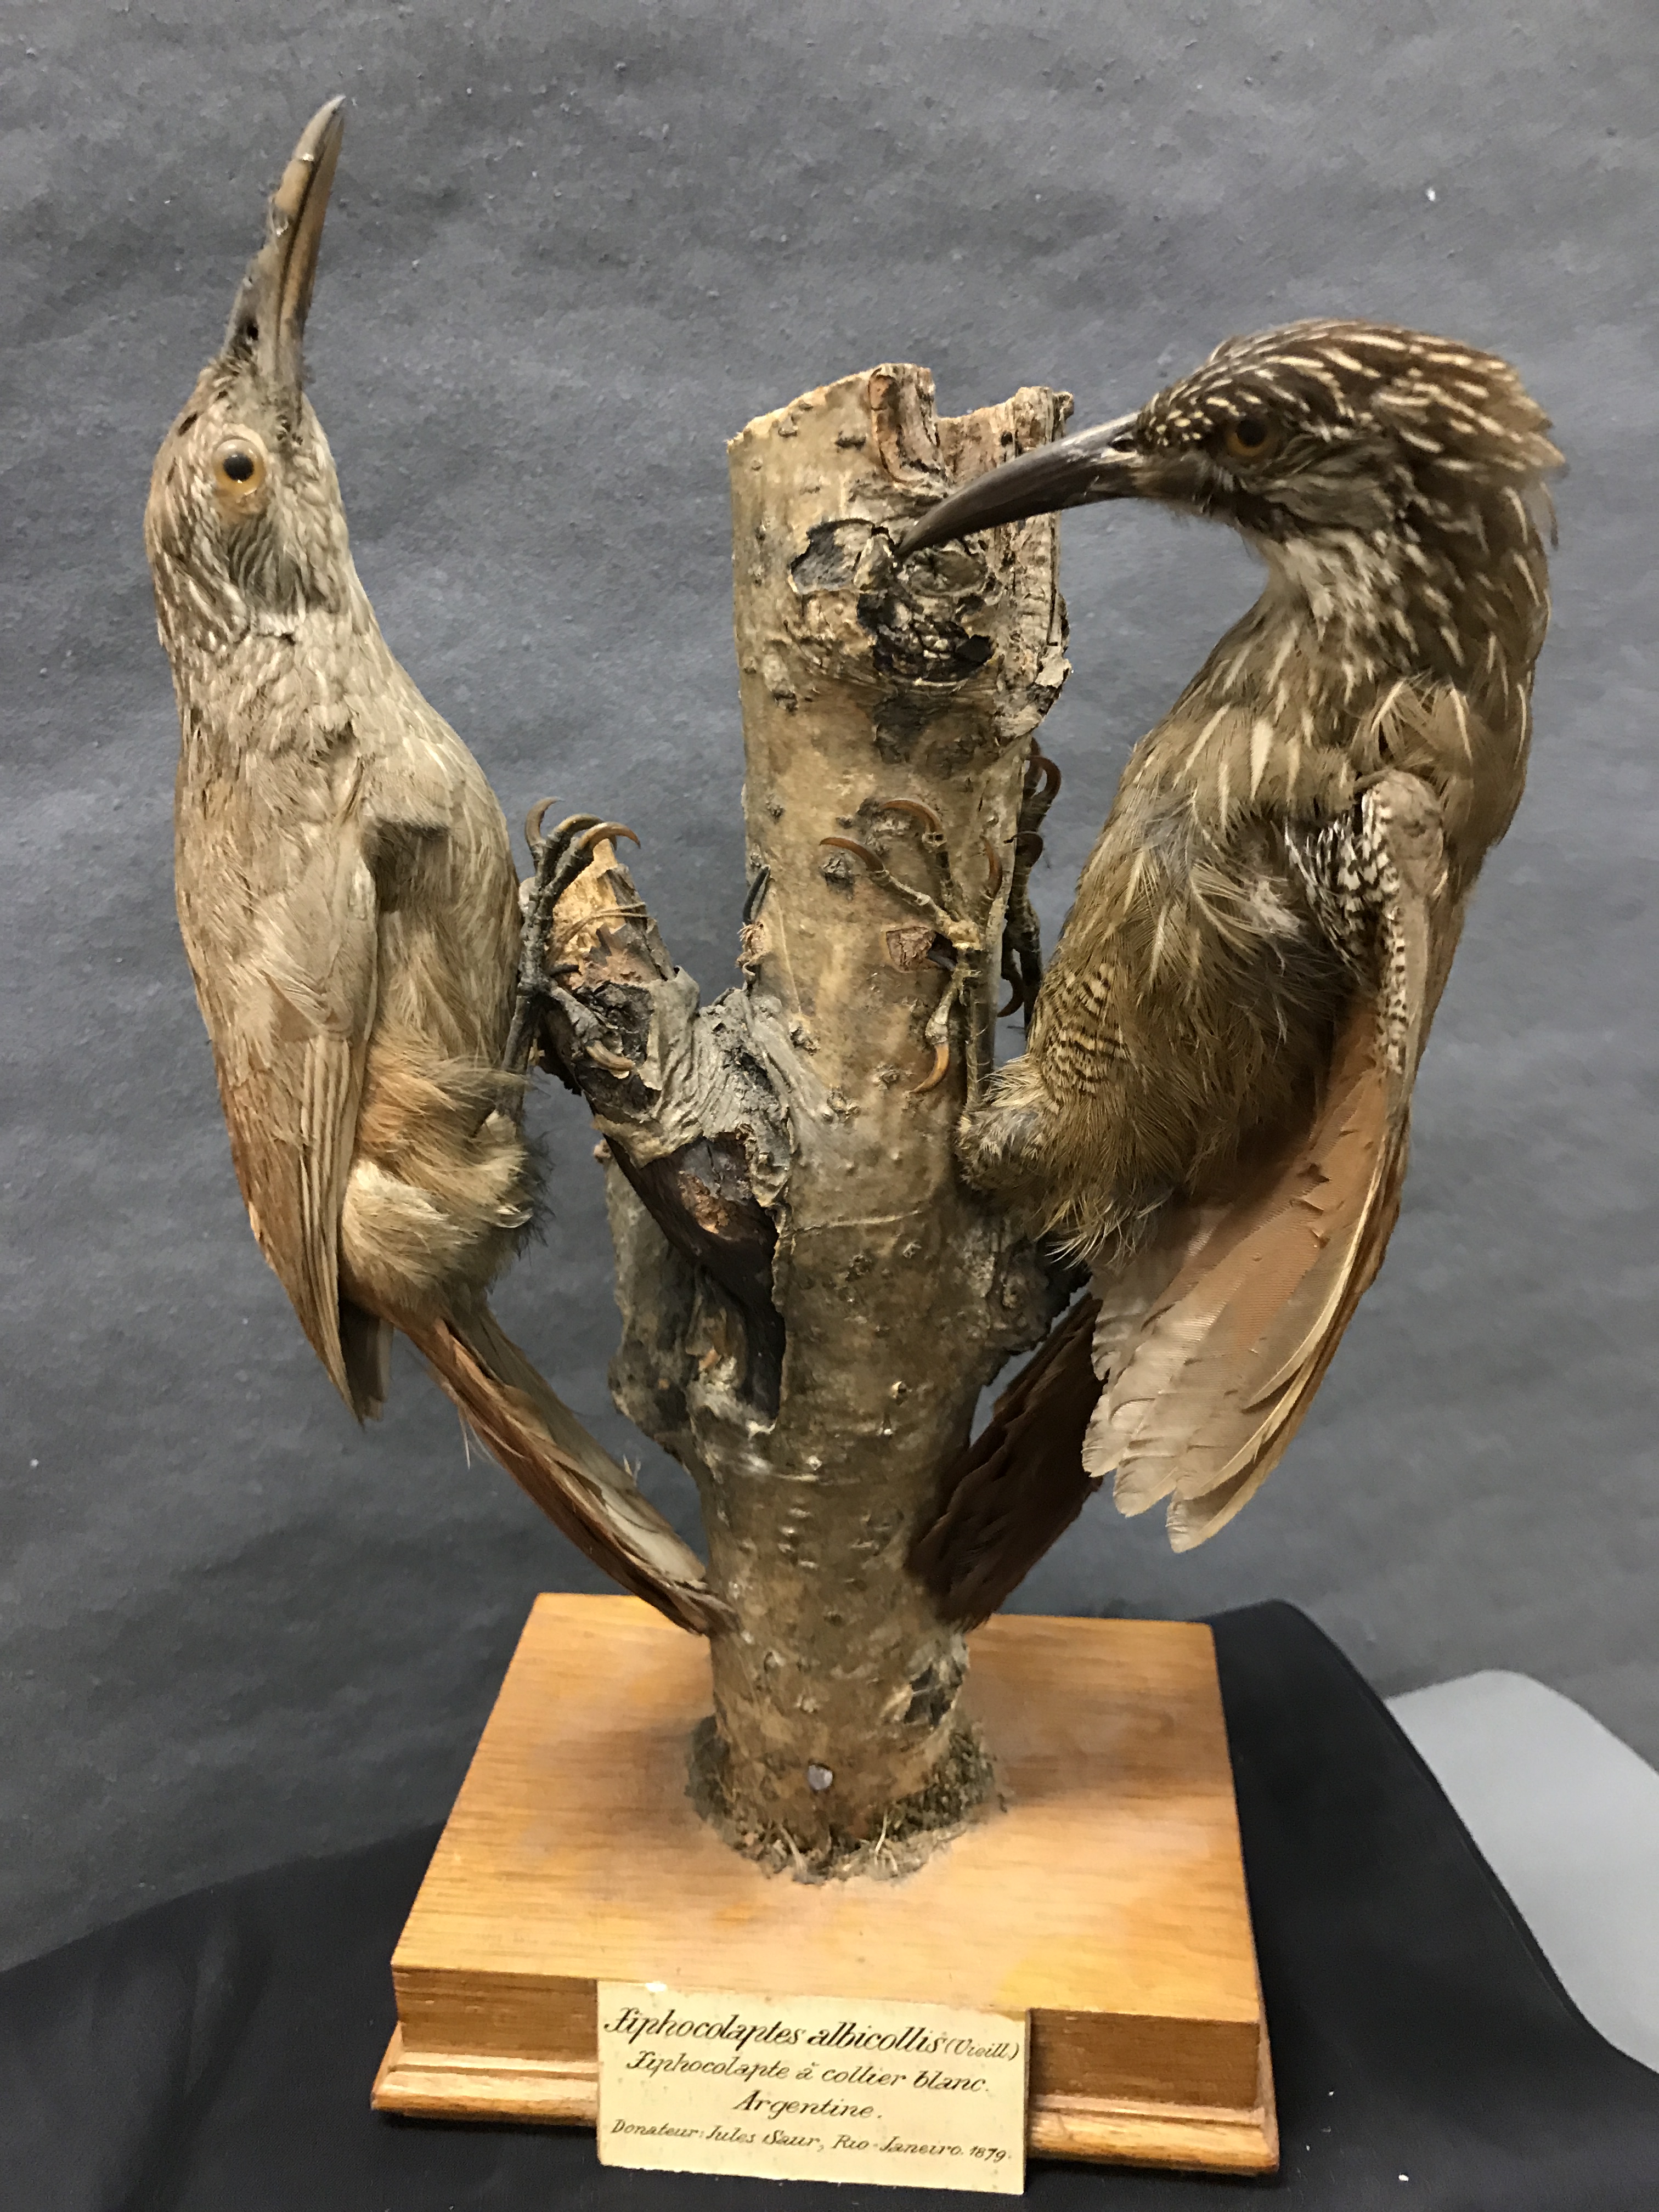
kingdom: Animalia
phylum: Chordata
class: Aves
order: Passeriformes
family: Furnariidae
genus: Xiphocolaptes
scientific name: Xiphocolaptes albicollis
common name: White-throated woodcreeper
